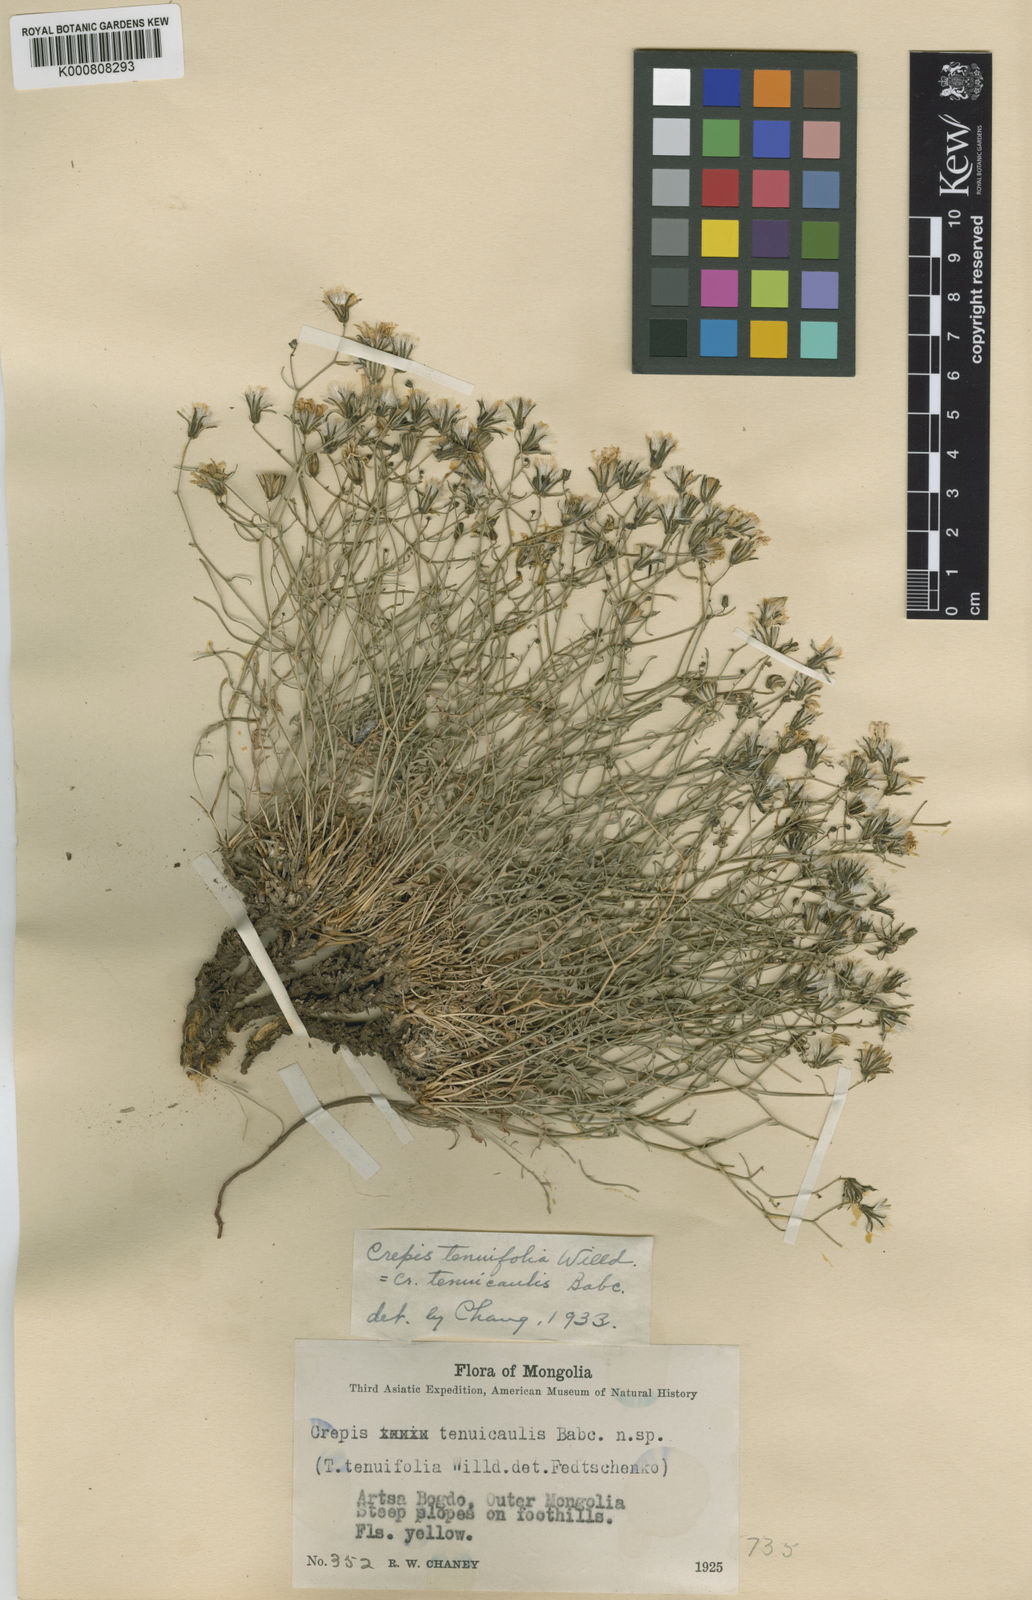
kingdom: Plantae
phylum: Tracheophyta
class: Magnoliopsida
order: Asterales
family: Asteraceae
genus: Crepidiastrum
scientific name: Crepidiastrum akagii
